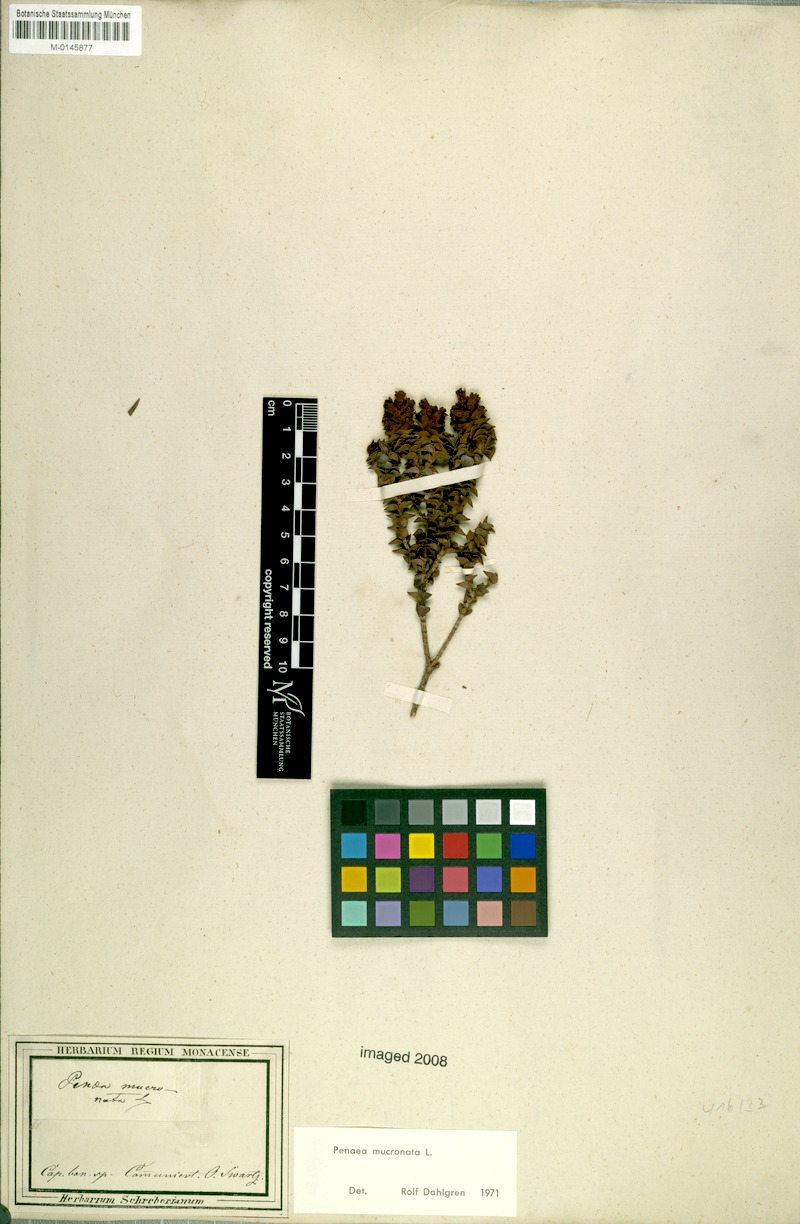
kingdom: Plantae
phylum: Tracheophyta
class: Magnoliopsida
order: Myrtales
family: Penaeaceae
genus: Penaea
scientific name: Penaea mucronata
